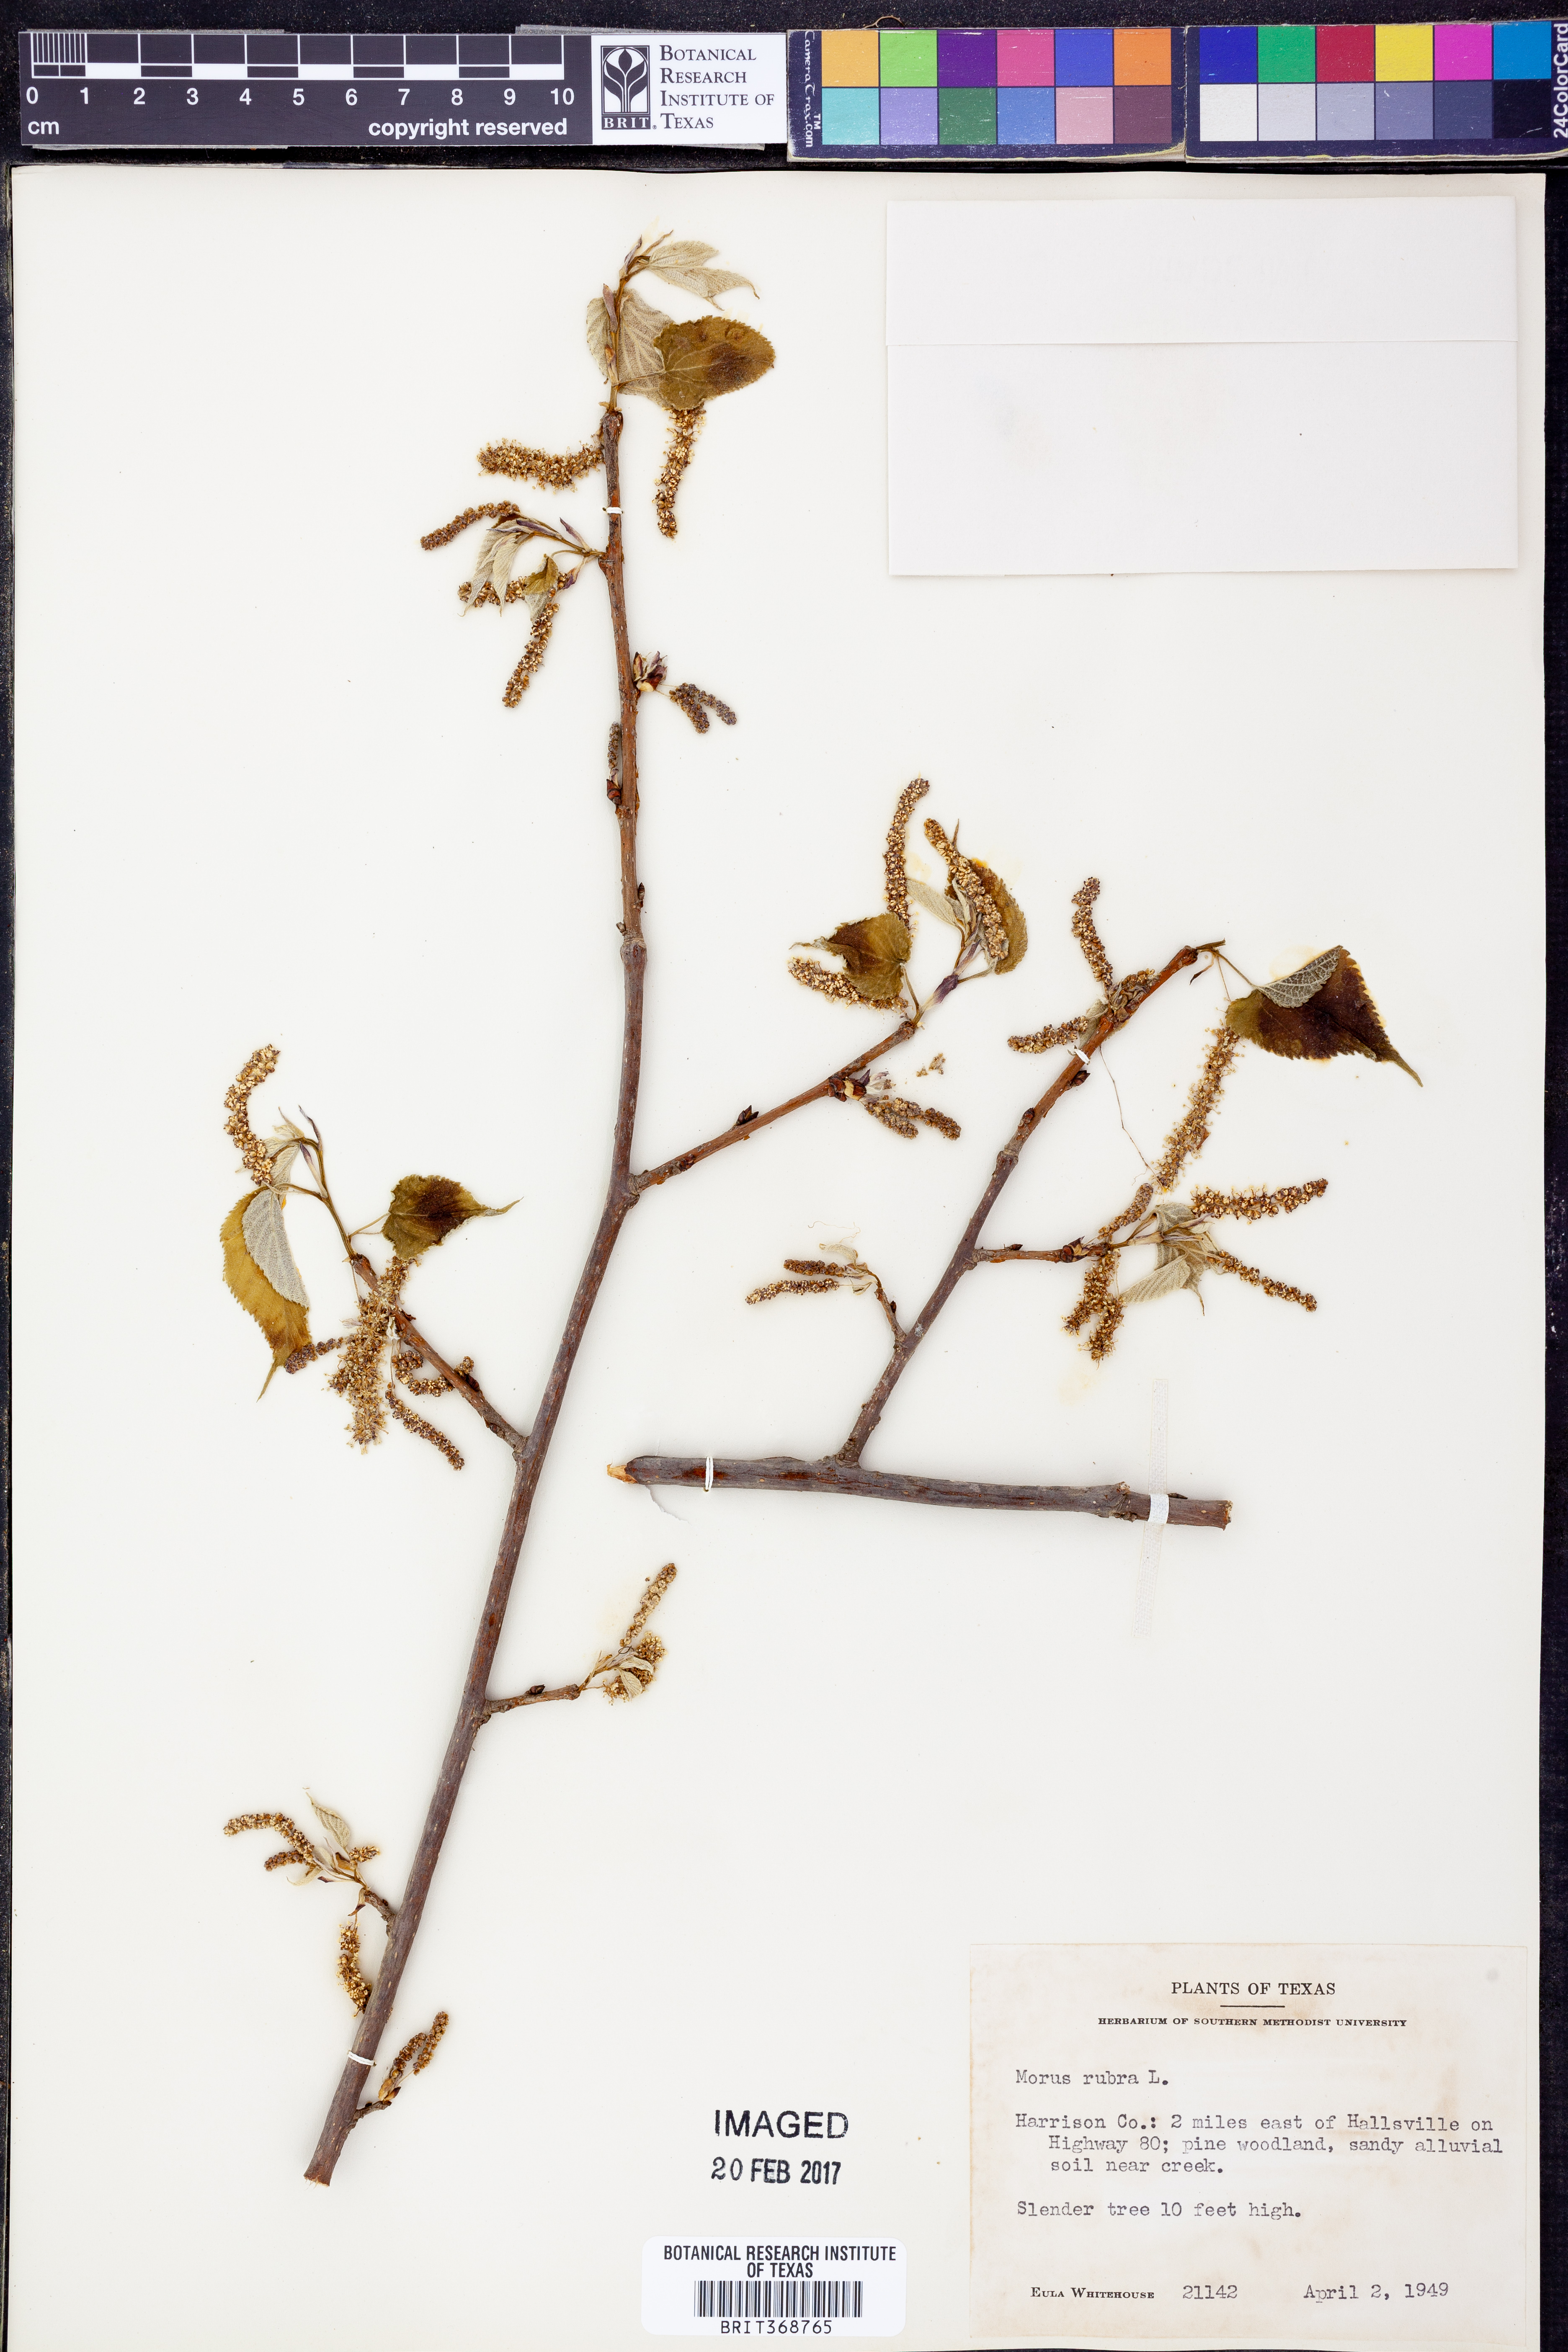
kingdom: Plantae
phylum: Tracheophyta
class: Magnoliopsida
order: Rosales
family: Moraceae
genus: Morus
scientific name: Morus rubra
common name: Red mulberry
